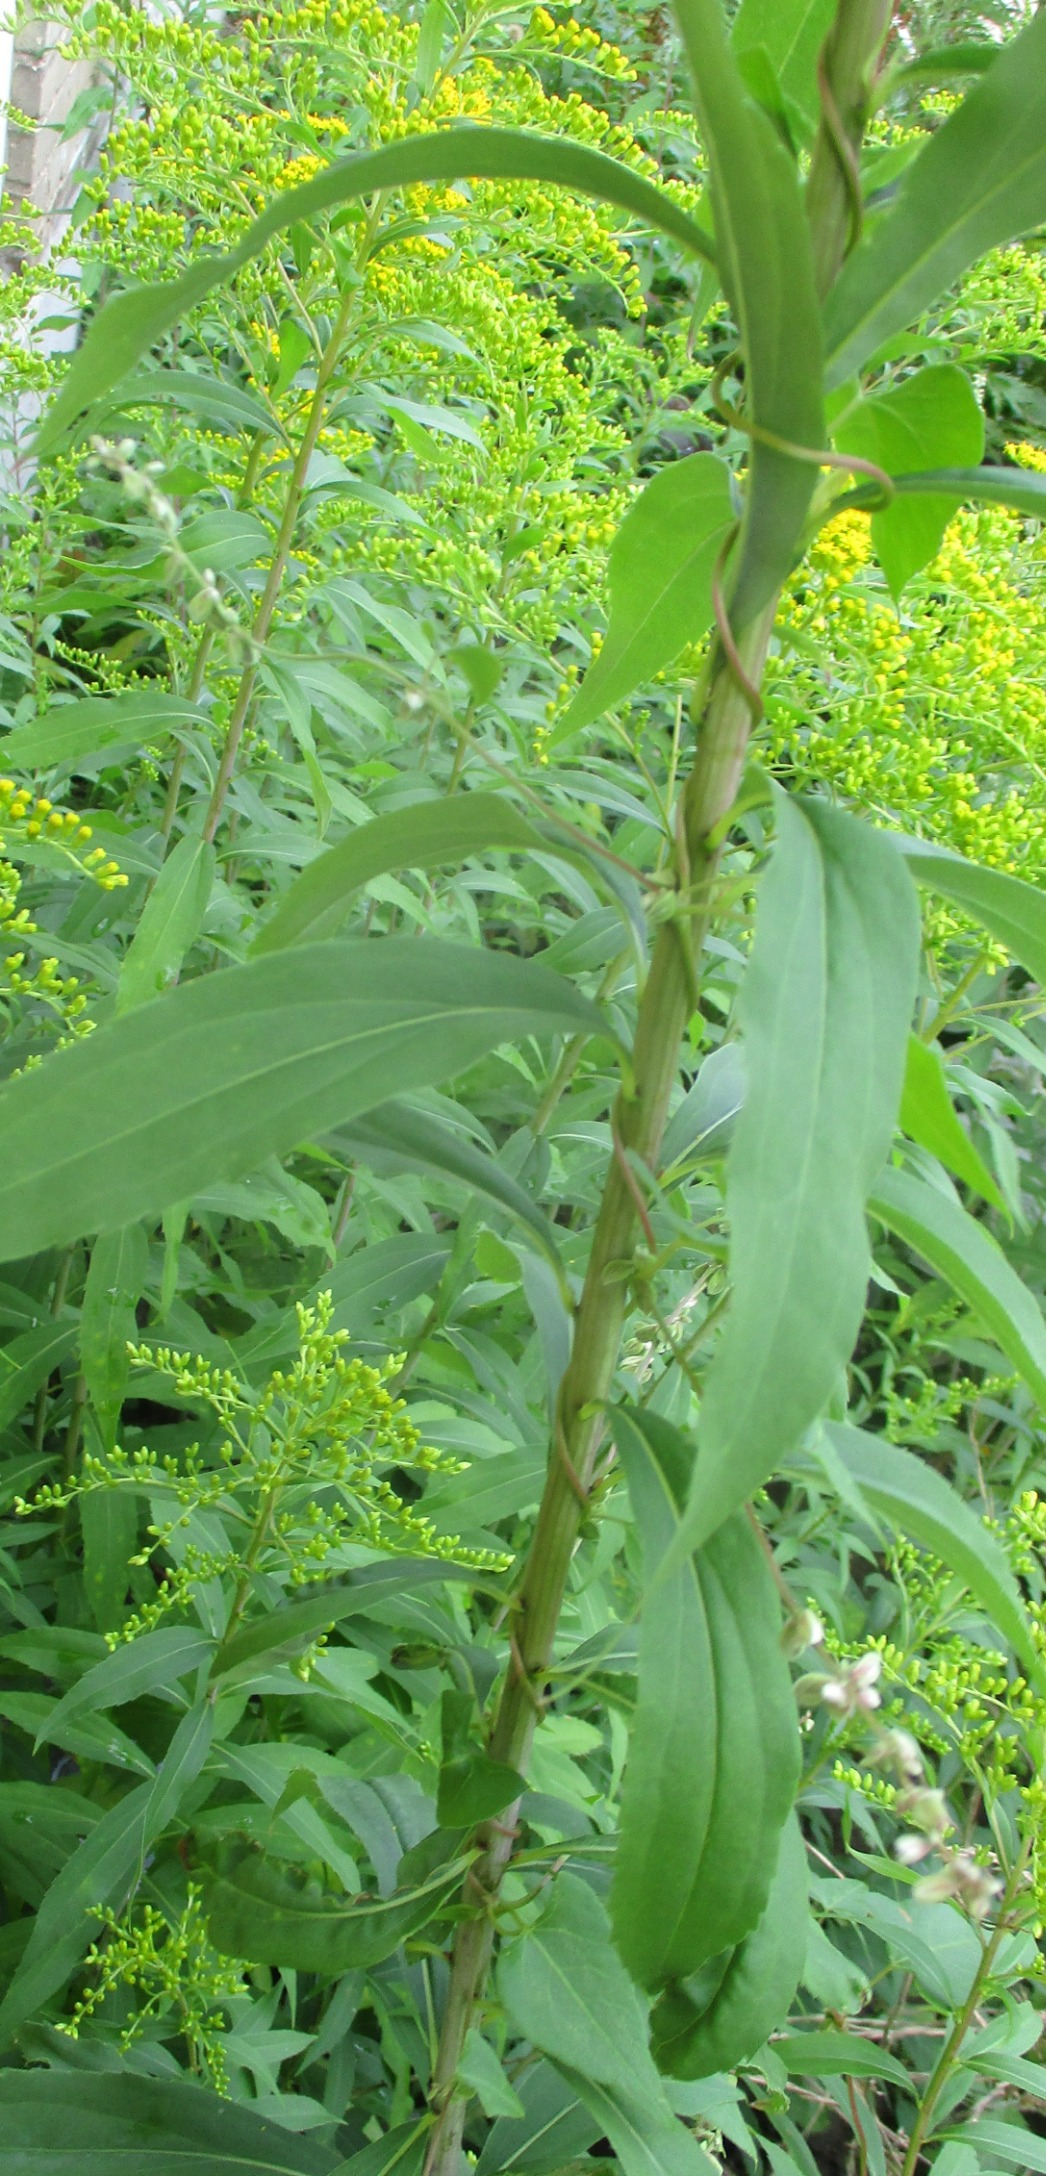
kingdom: Plantae
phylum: Tracheophyta
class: Magnoliopsida
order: Asterales
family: Asteraceae
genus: Solidago
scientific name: Solidago gigantea
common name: Sildig gyldenris
